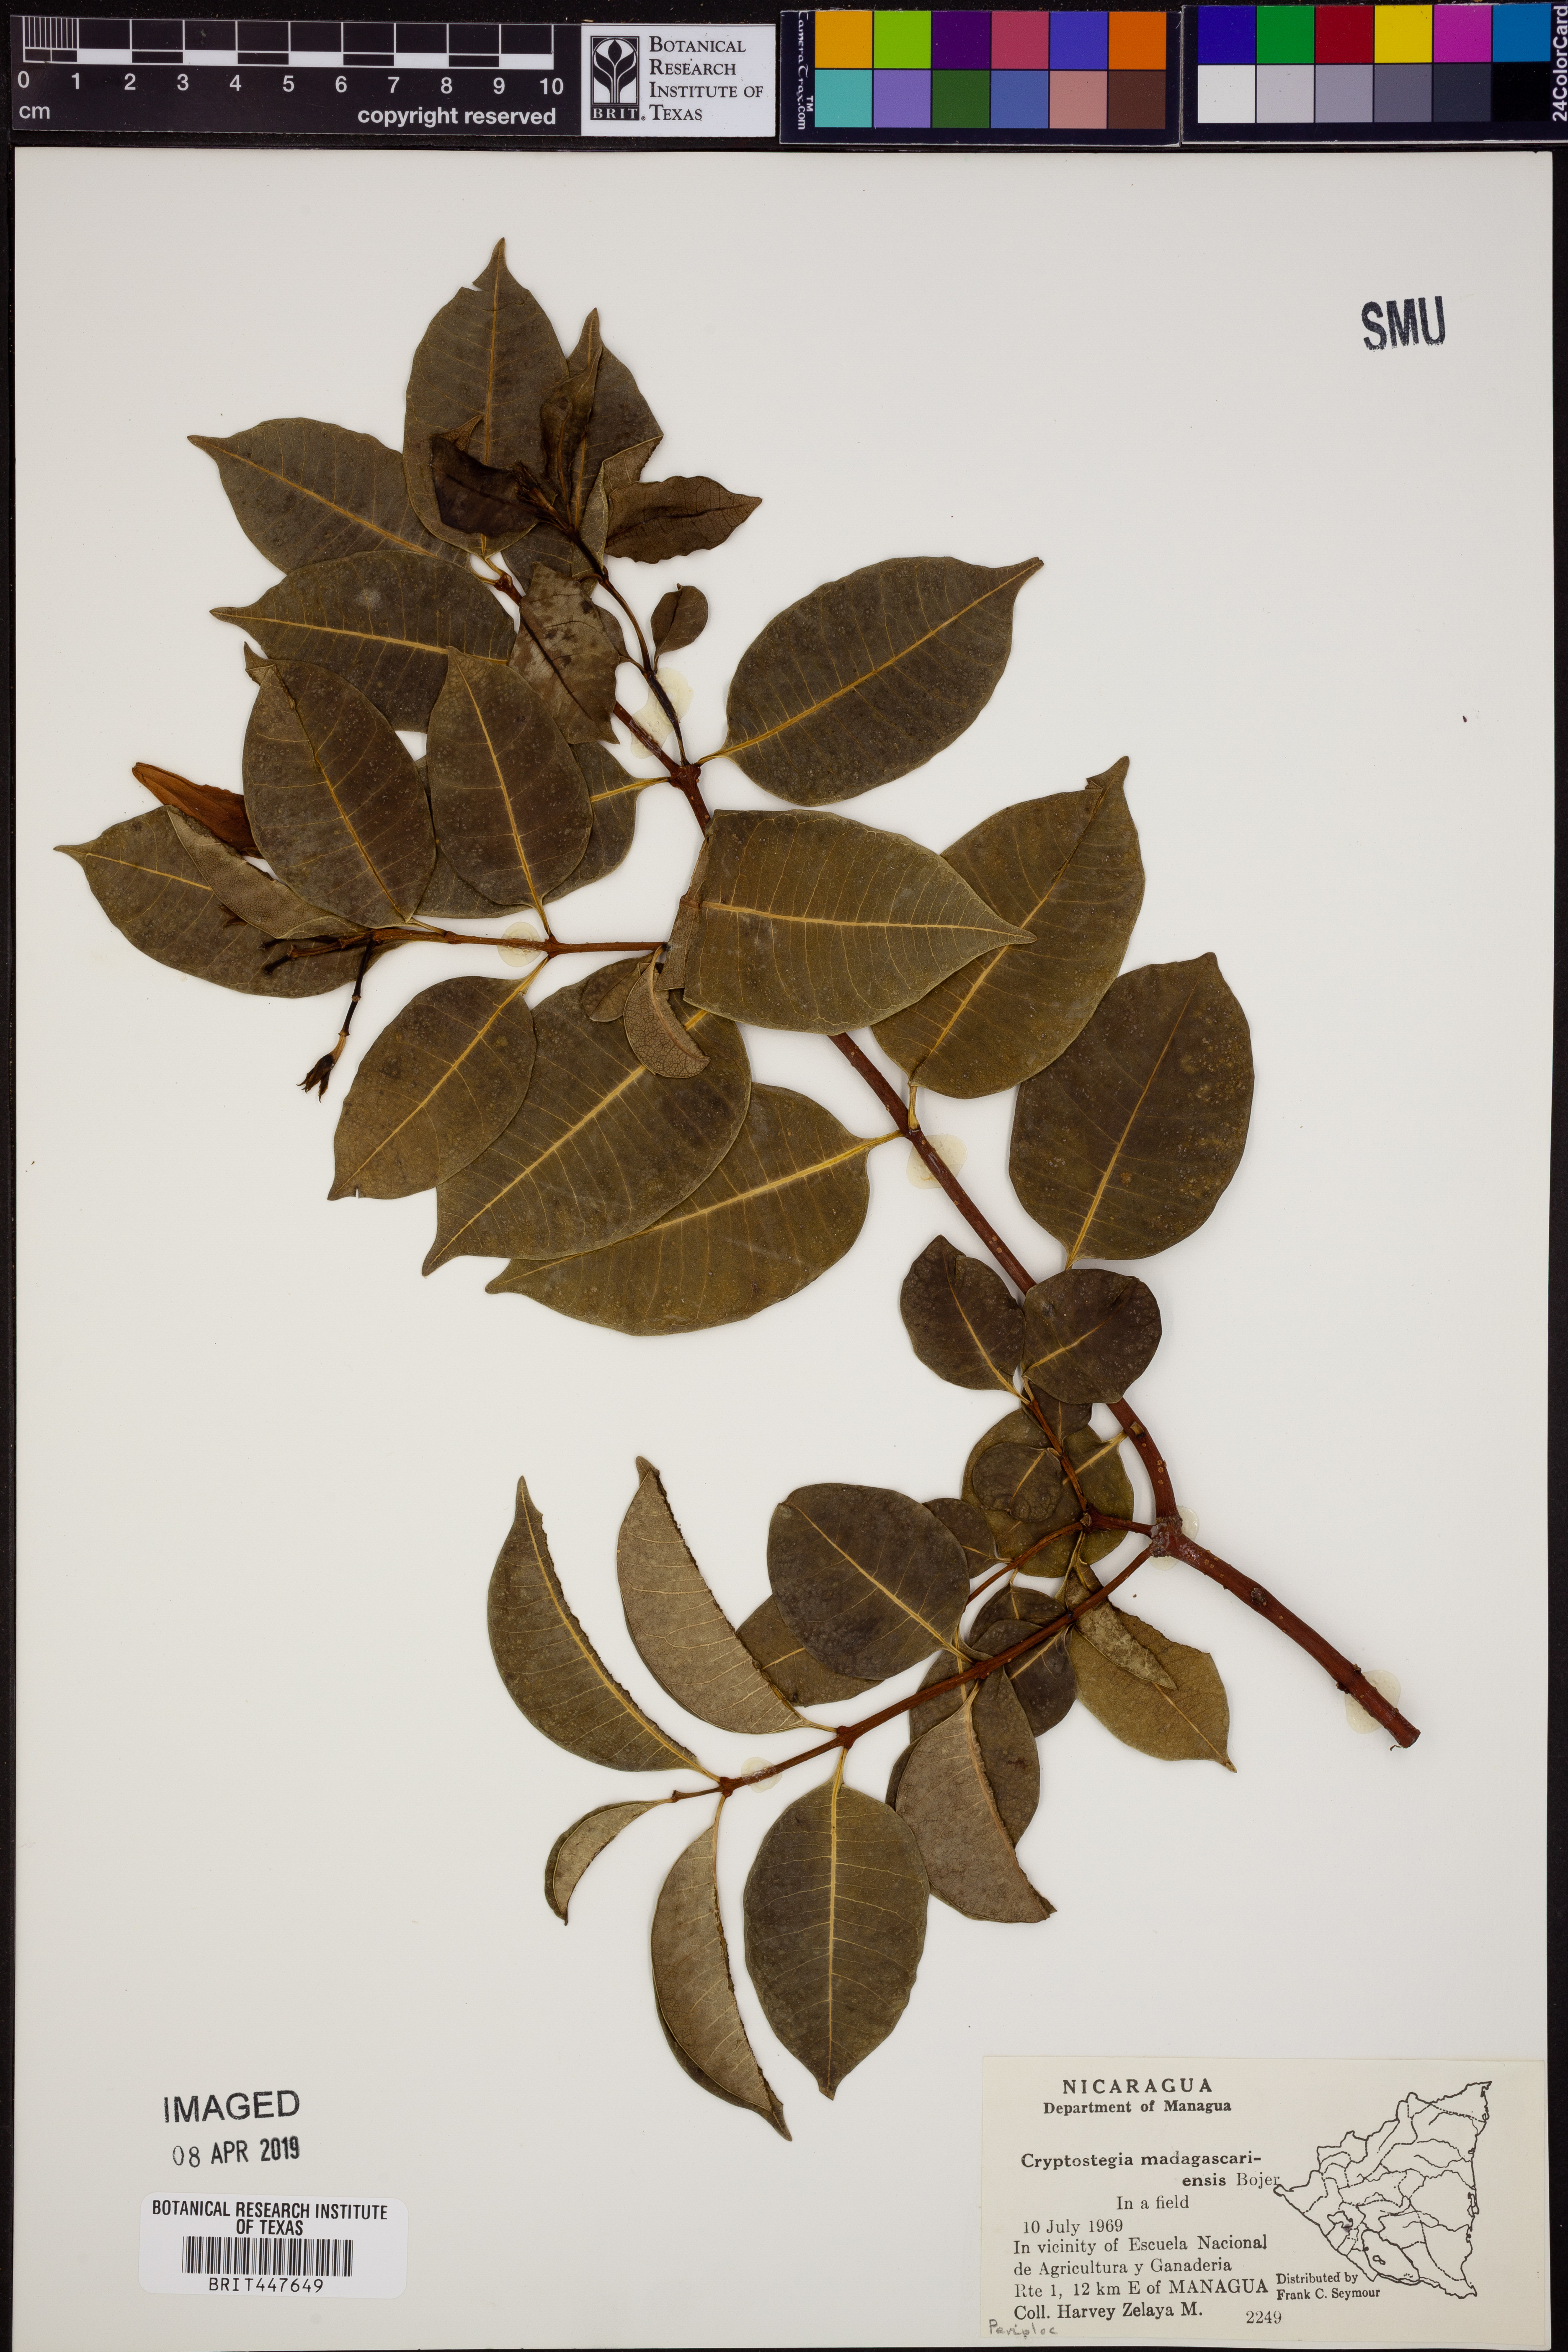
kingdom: Plantae
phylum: Tracheophyta
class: Magnoliopsida
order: Gentianales
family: Apocynaceae
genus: Cryptostegia
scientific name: Cryptostegia madagascariensis
